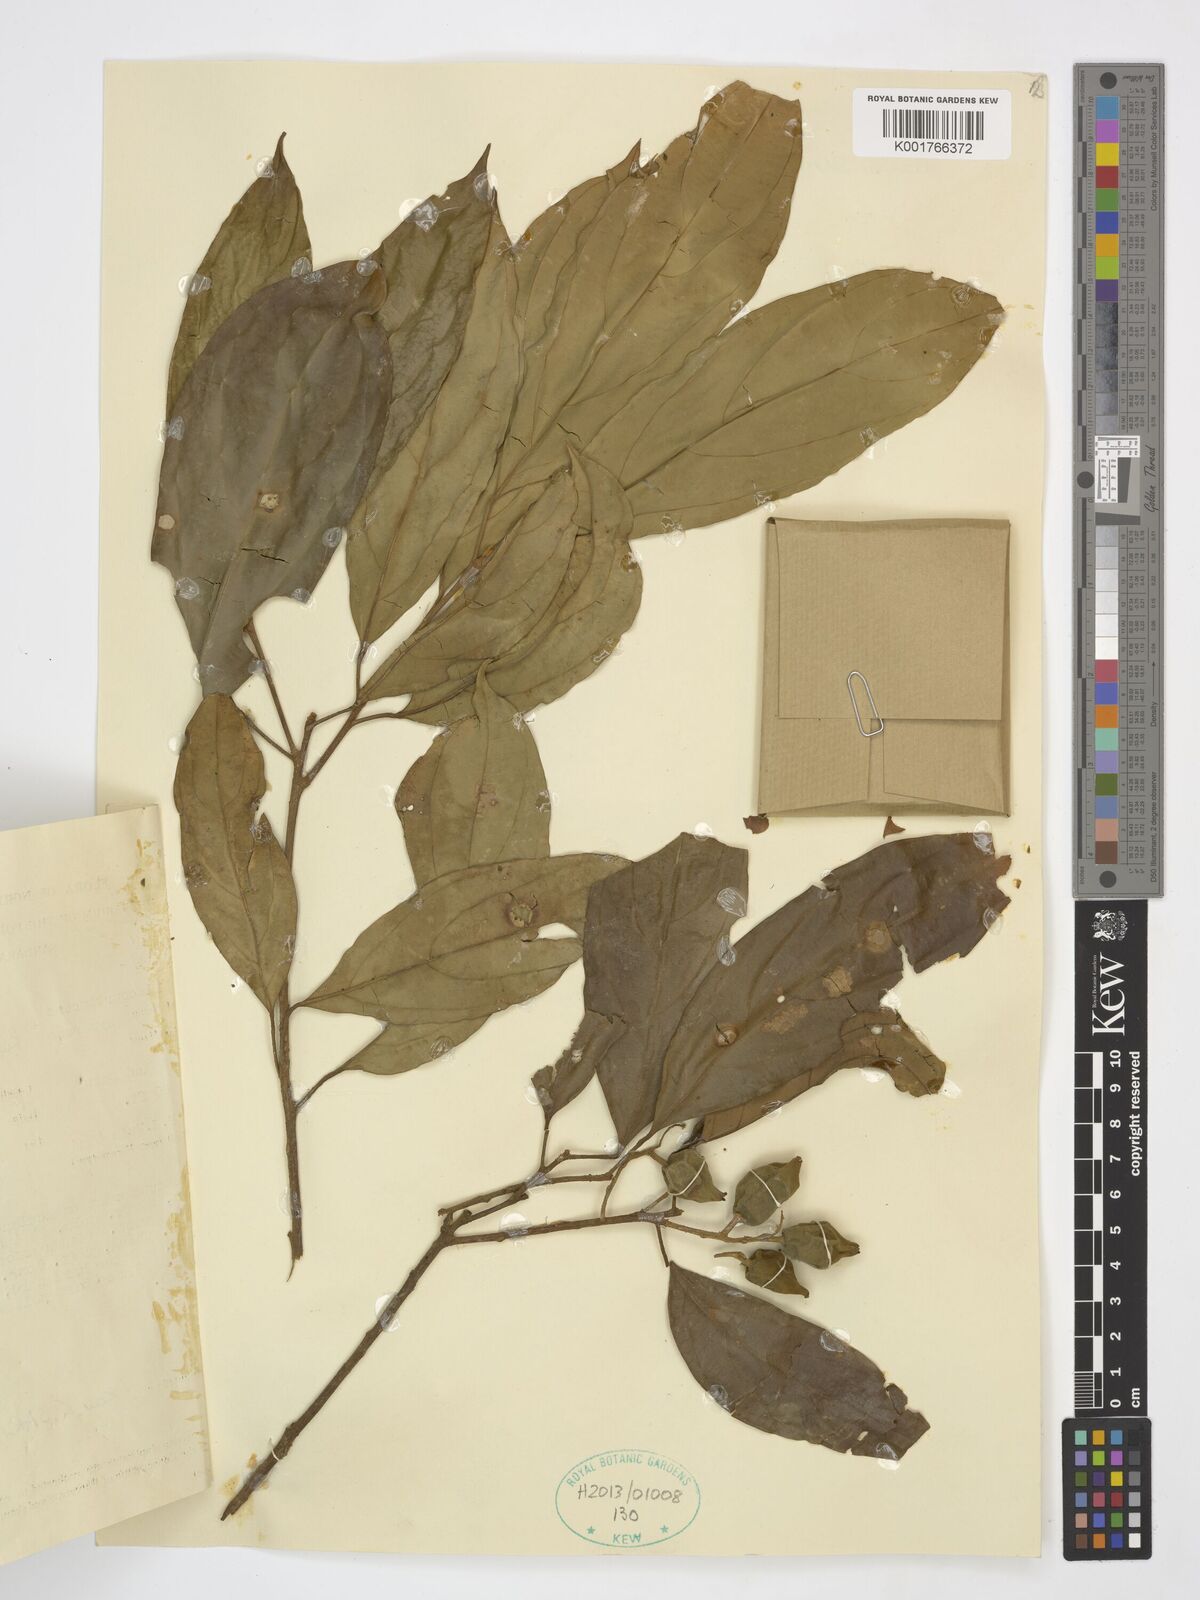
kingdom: Plantae
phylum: Tracheophyta
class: Magnoliopsida
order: Malpighiales
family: Achariaceae
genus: Ryparosa
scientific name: Ryparosa hullettii
